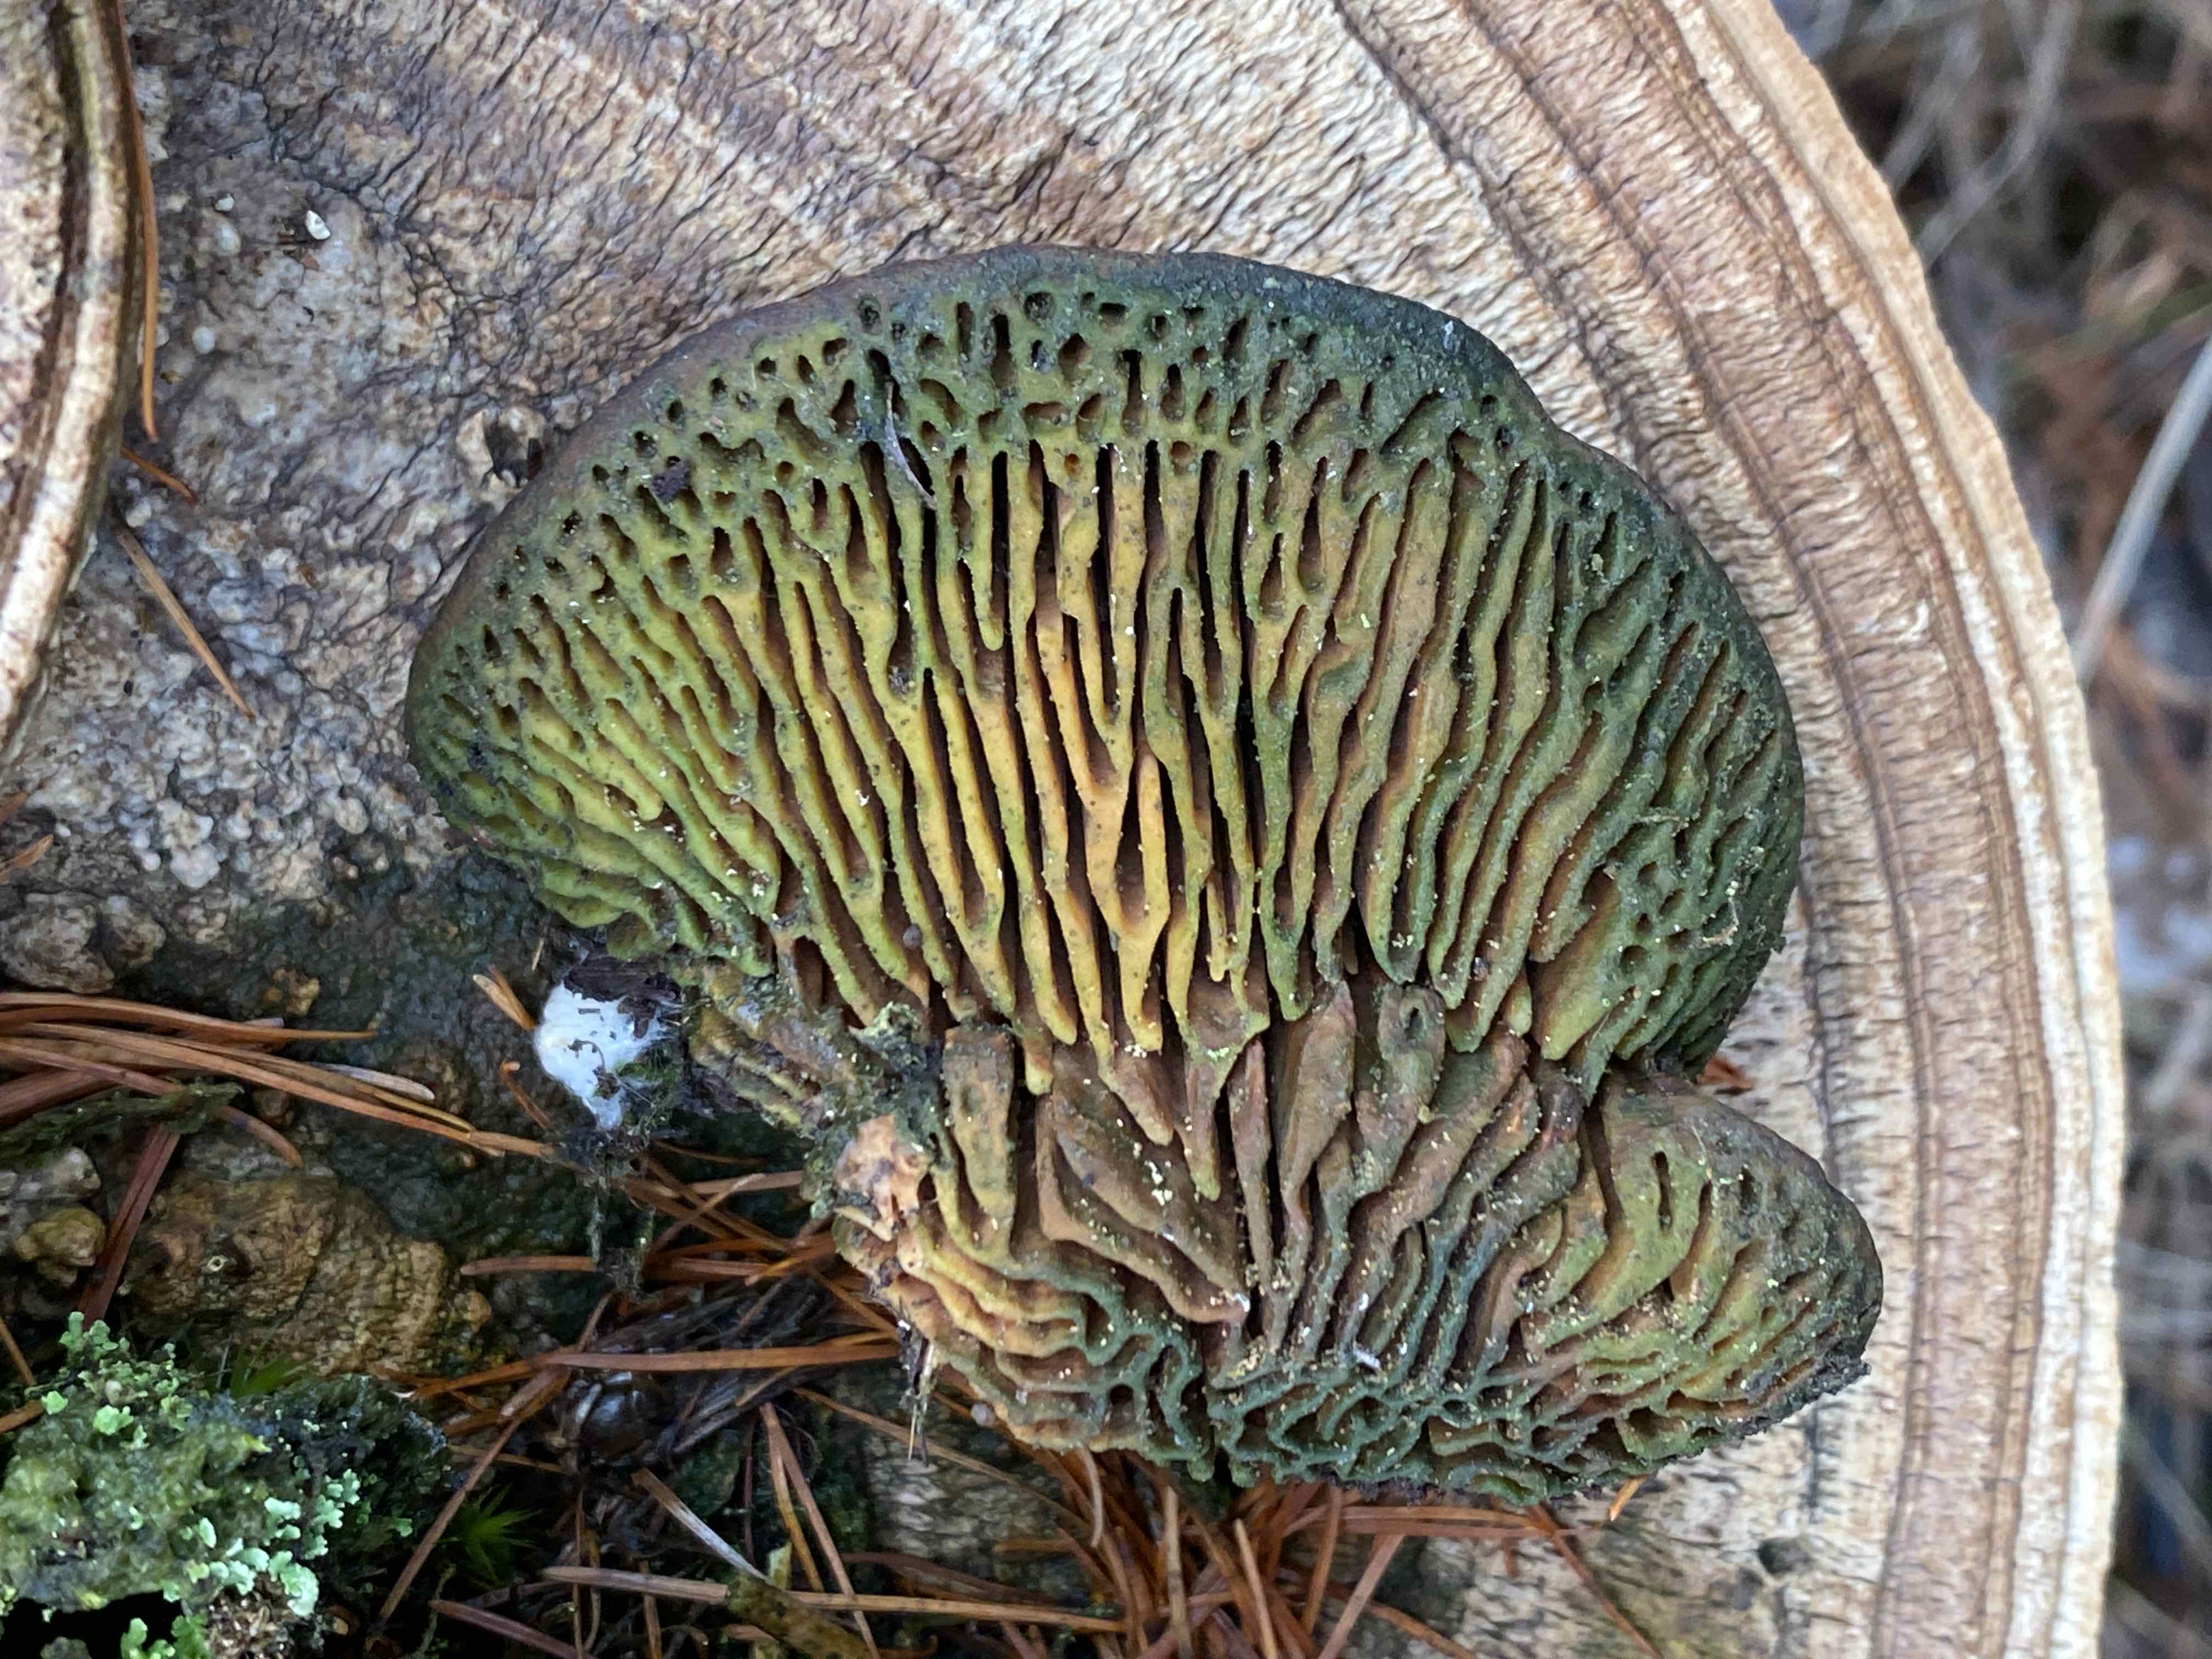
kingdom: Fungi
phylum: Basidiomycota
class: Agaricomycetes
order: Polyporales
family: Fomitopsidaceae
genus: Daedalea
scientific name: Daedalea quercina
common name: ege-labyrintsvamp
